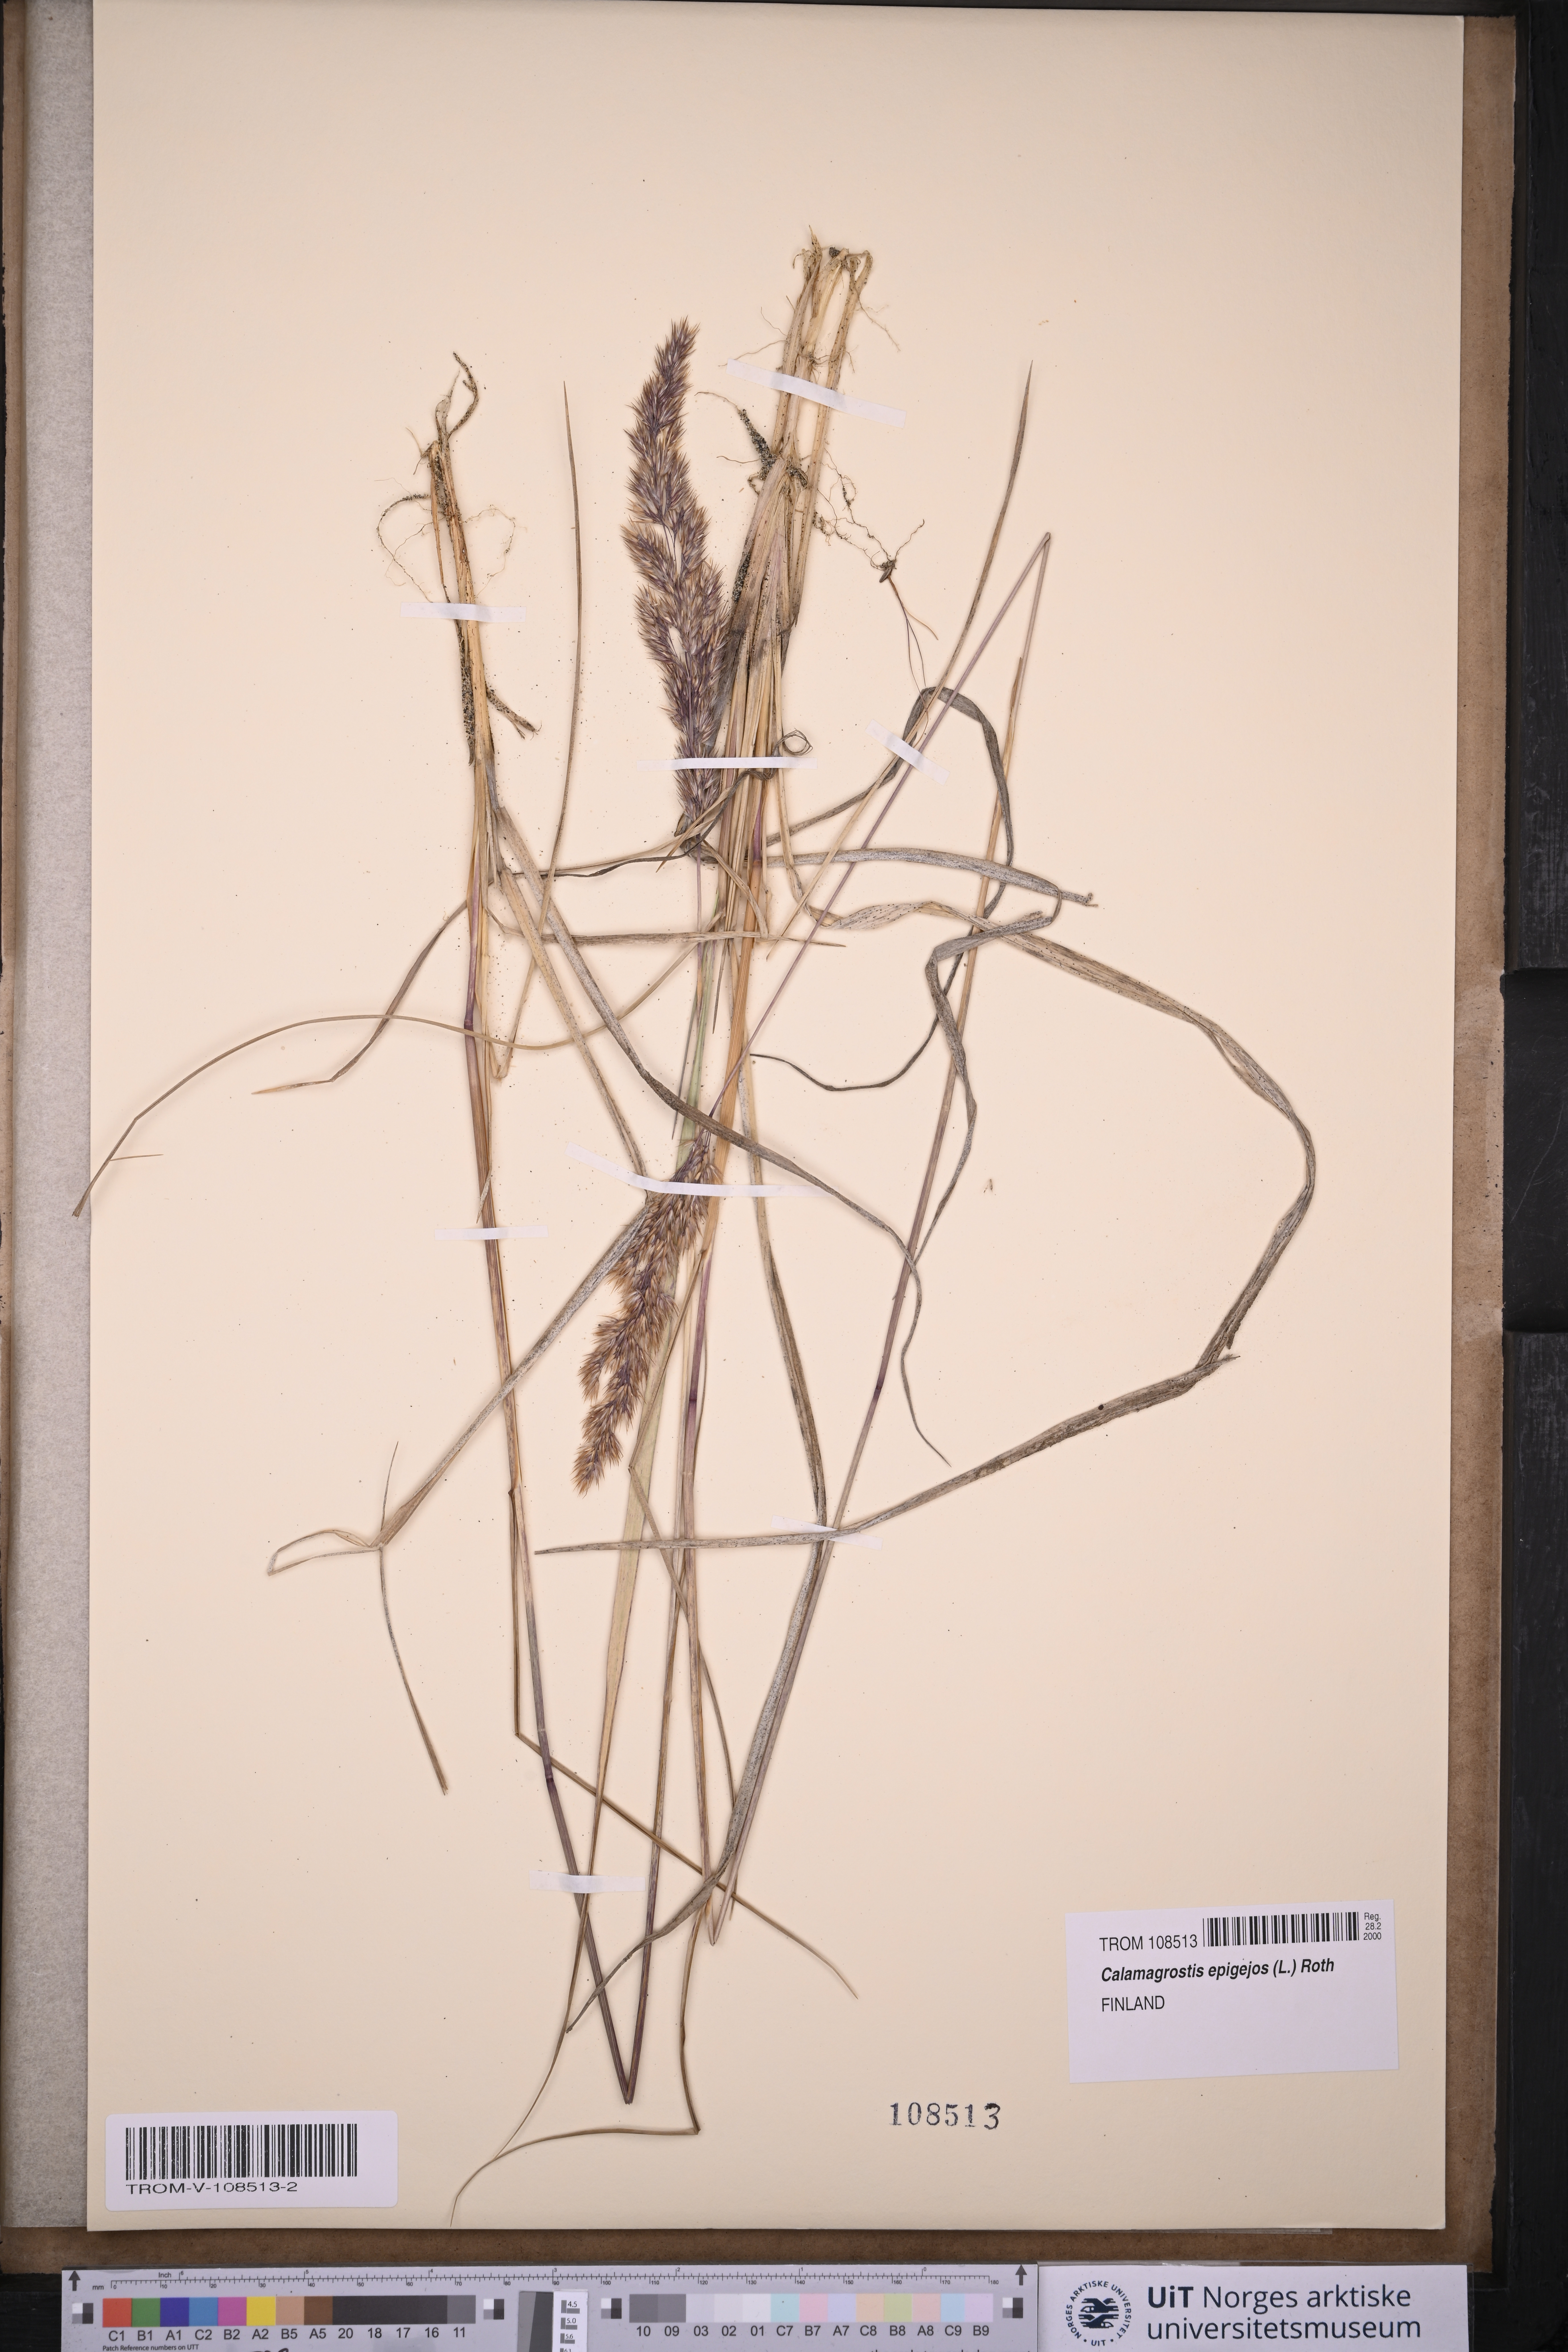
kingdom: Plantae
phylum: Tracheophyta
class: Liliopsida
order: Poales
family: Poaceae
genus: Calamagrostis
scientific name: Calamagrostis epigejos
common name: Wood small-reed
